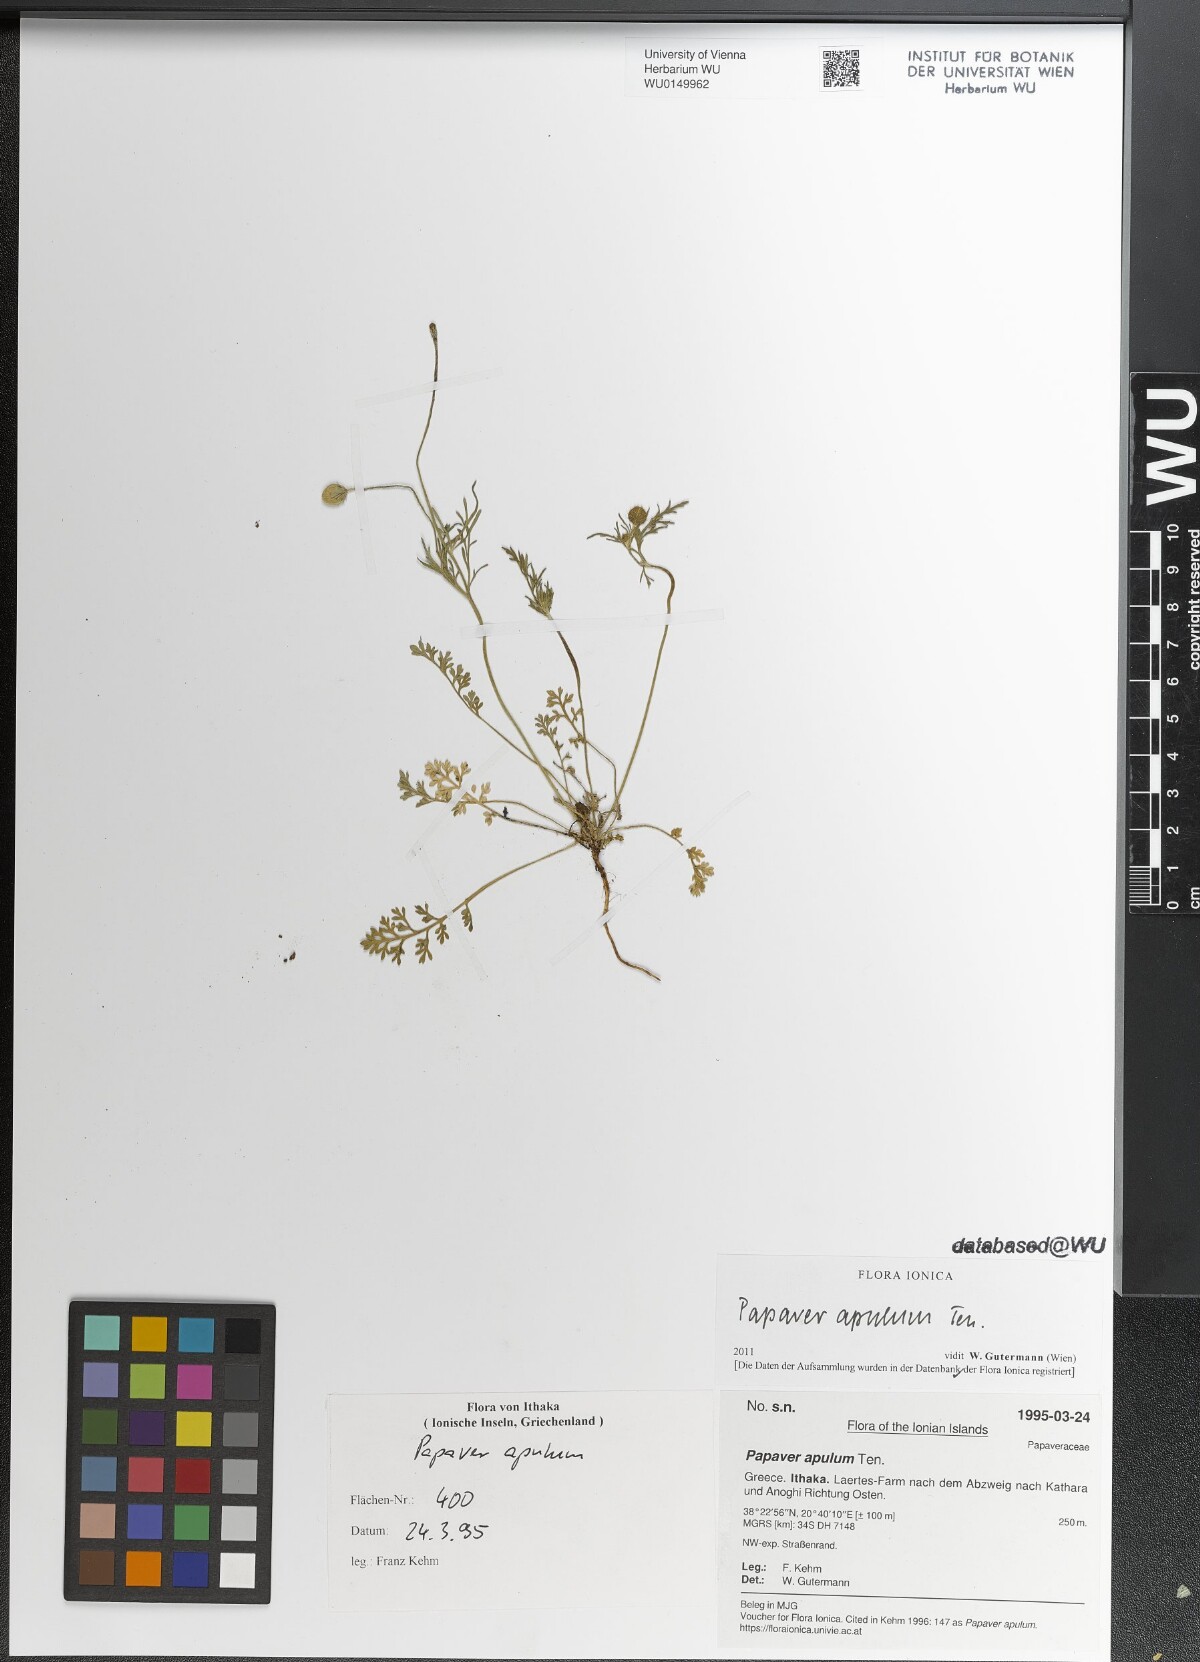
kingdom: Plantae
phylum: Tracheophyta
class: Magnoliopsida
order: Ranunculales
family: Papaveraceae
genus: Roemeria
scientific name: Roemeria apula
